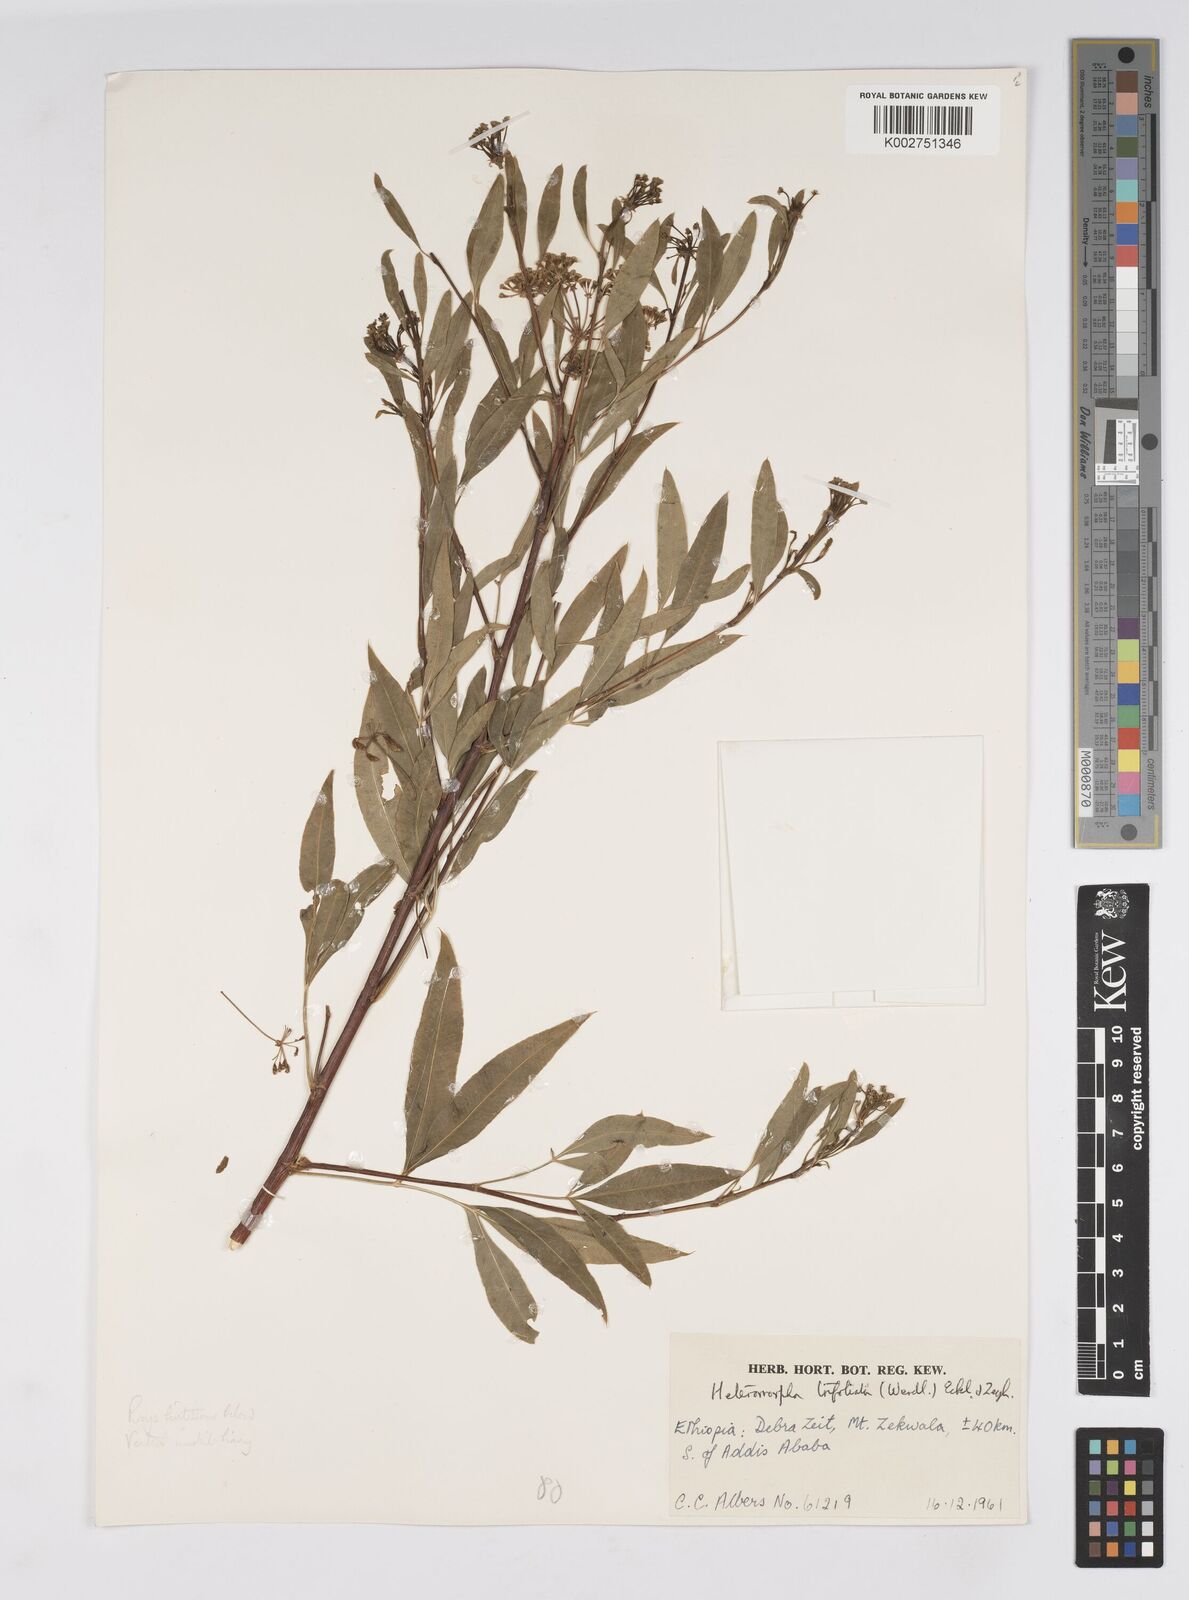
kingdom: Plantae
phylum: Tracheophyta
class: Magnoliopsida
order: Apiales
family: Apiaceae
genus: Heteromorpha
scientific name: Heteromorpha
